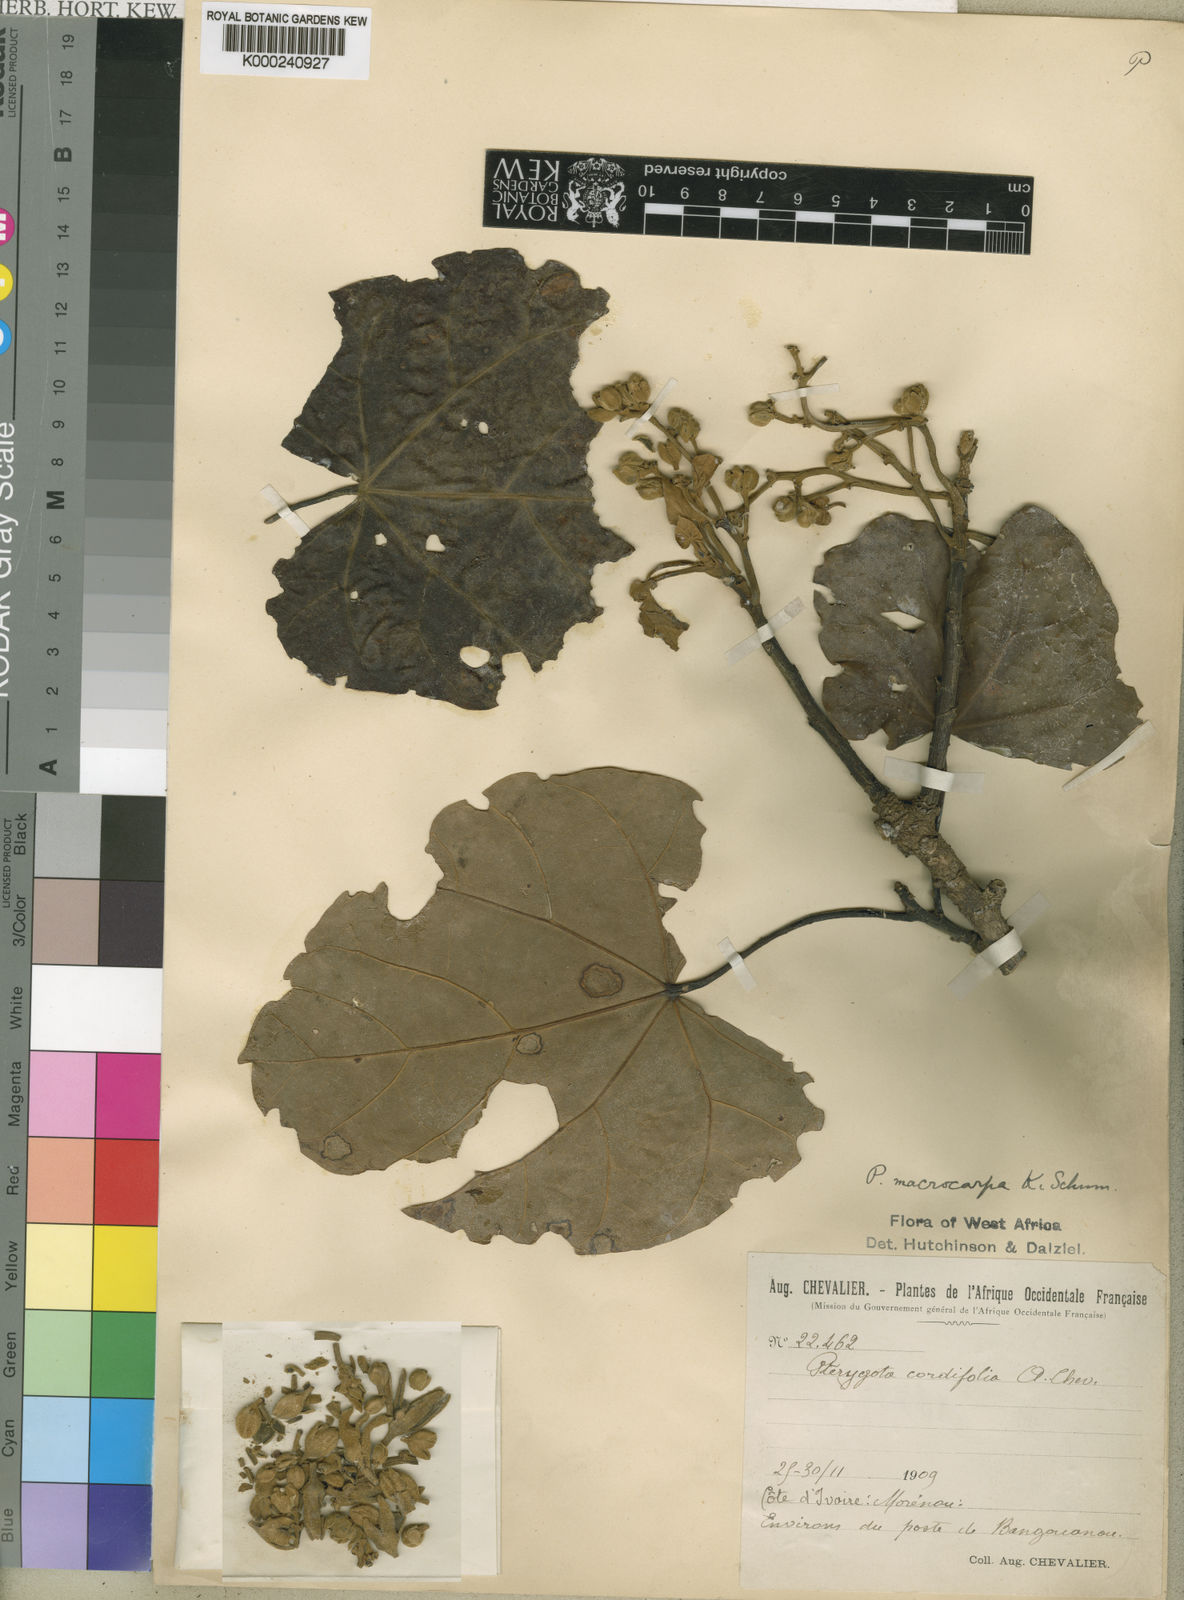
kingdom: Plantae
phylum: Tracheophyta
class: Magnoliopsida
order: Malvales
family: Malvaceae
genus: Pterygota
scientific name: Pterygota macrocarpa
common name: African pterygota
